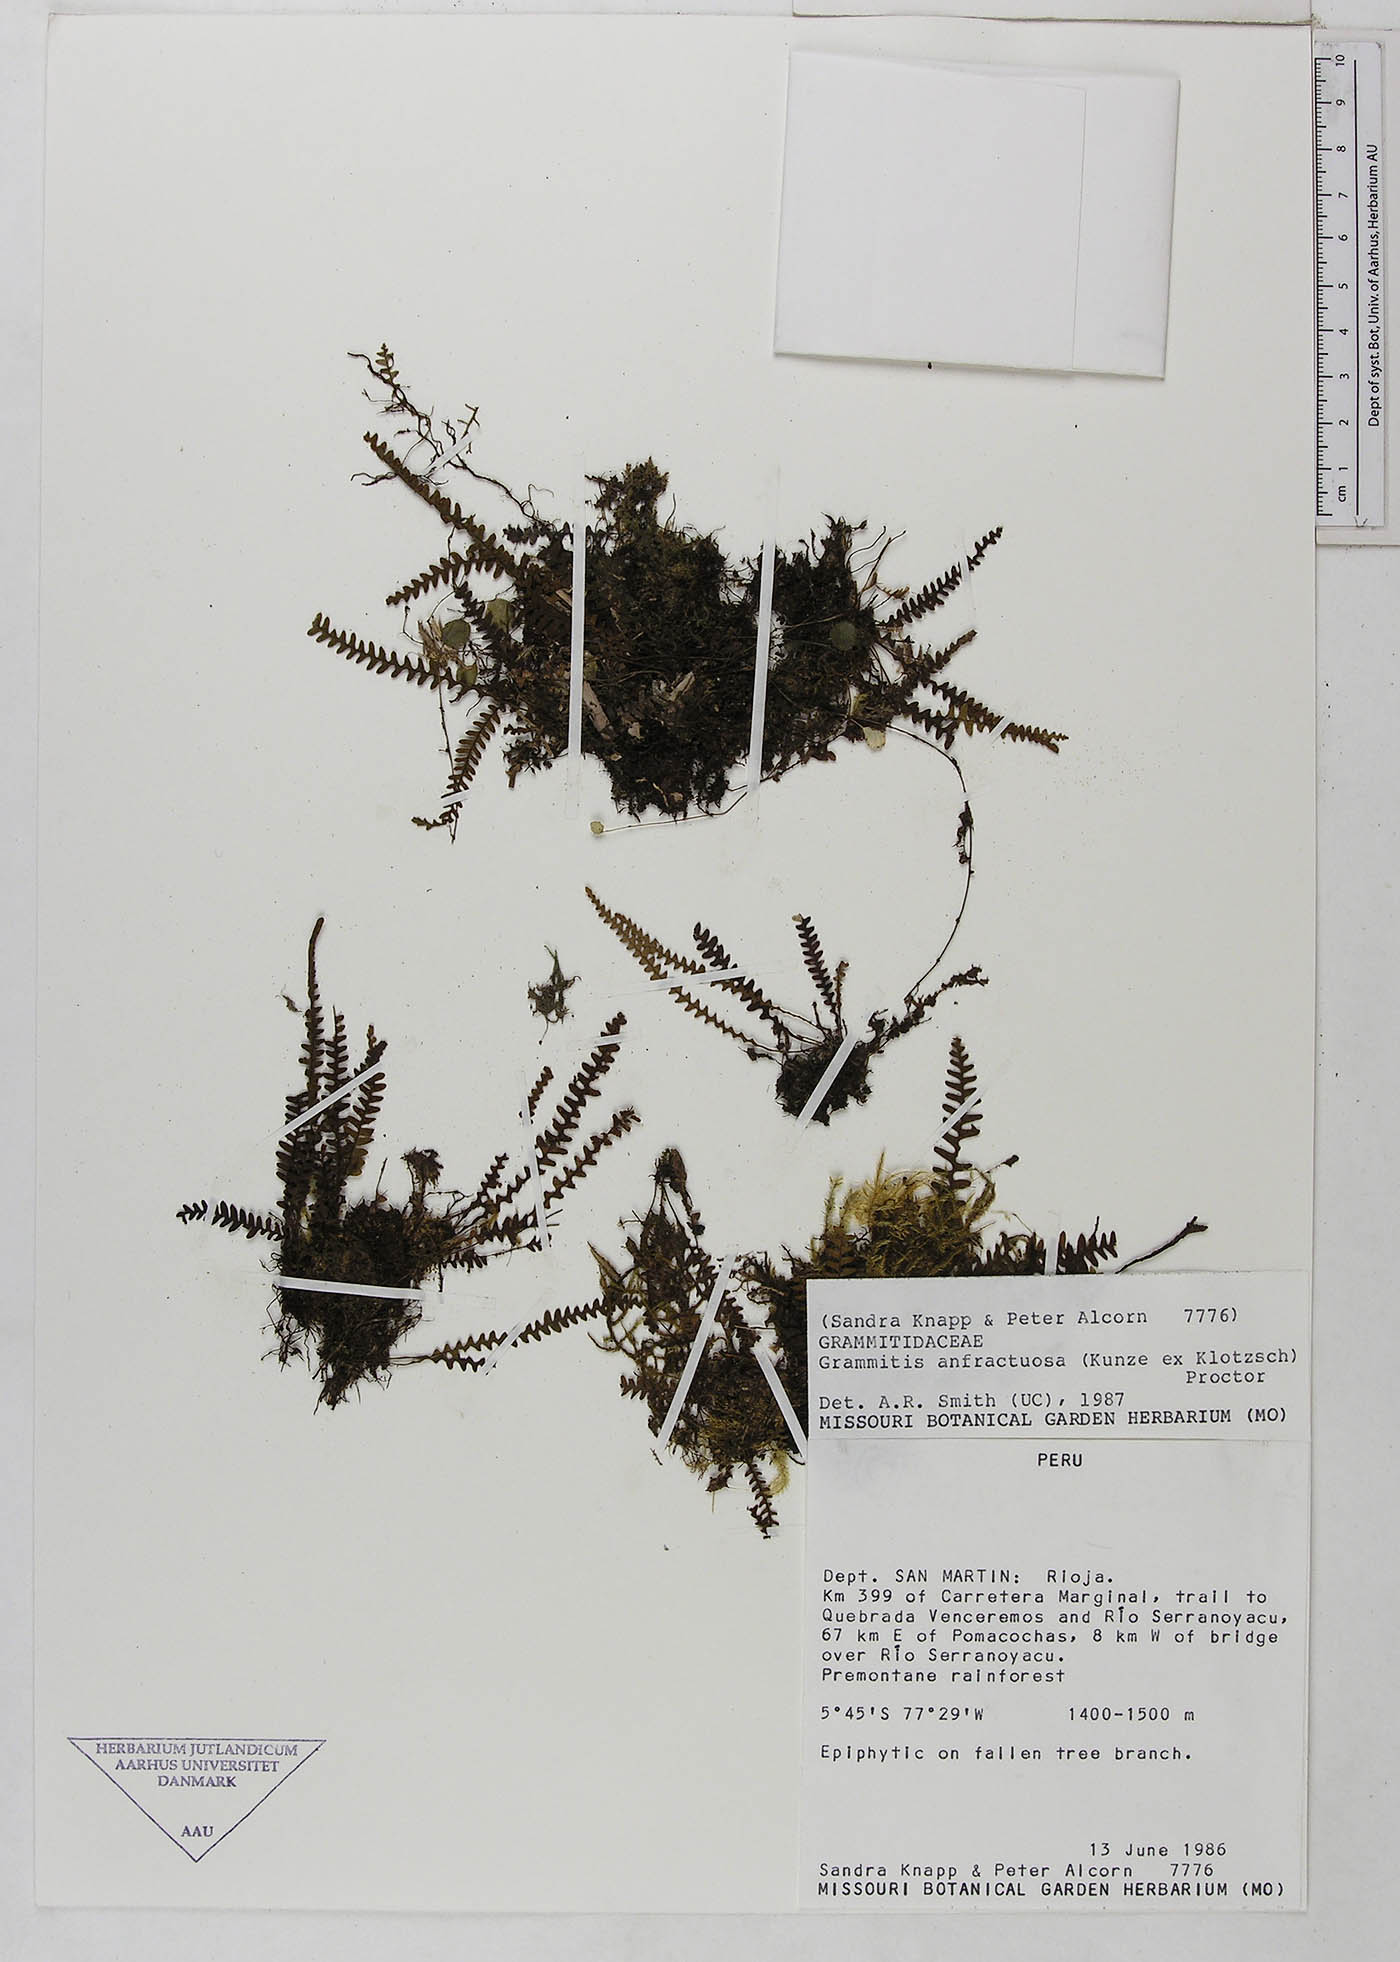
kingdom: Plantae
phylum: Tracheophyta
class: Polypodiopsida
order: Polypodiales
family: Polypodiaceae
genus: Ascogrammitis
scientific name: Ascogrammitis anfractuosa
